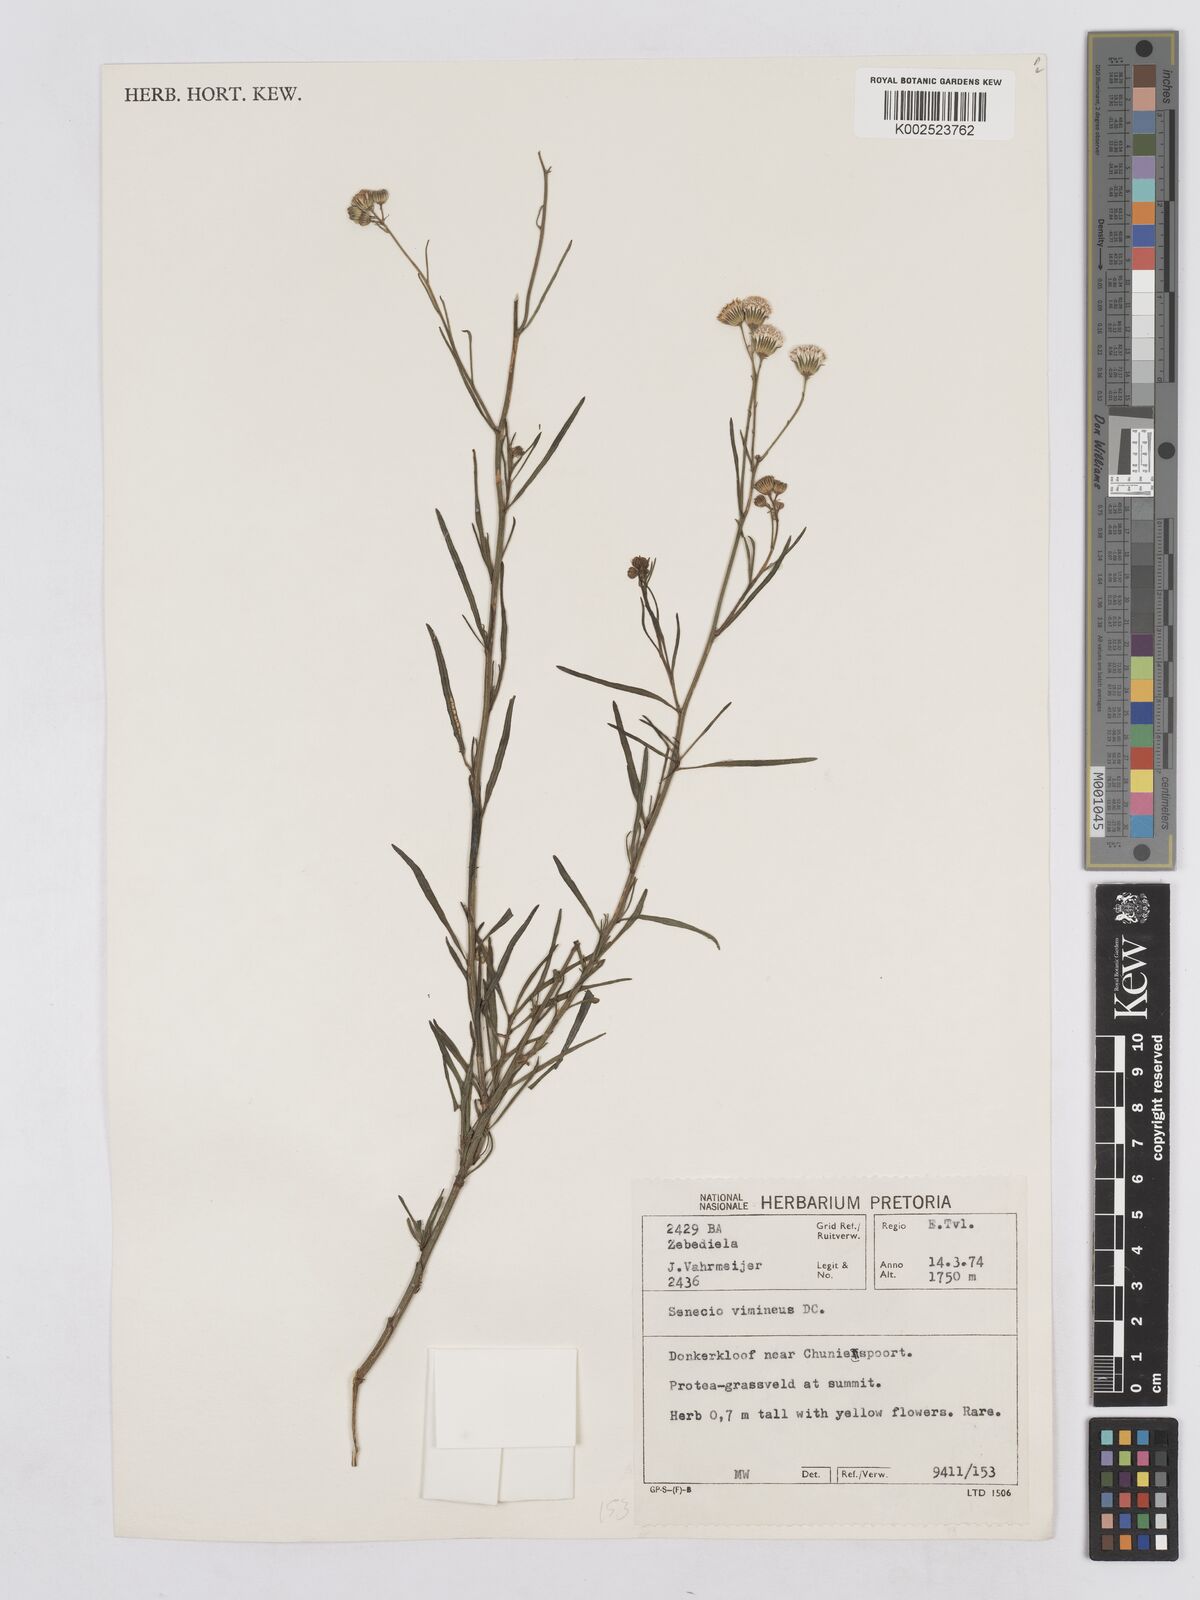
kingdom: Plantae
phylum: Tracheophyta
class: Magnoliopsida
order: Asterales
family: Asteraceae
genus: Senecio
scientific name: Senecio vimineus
